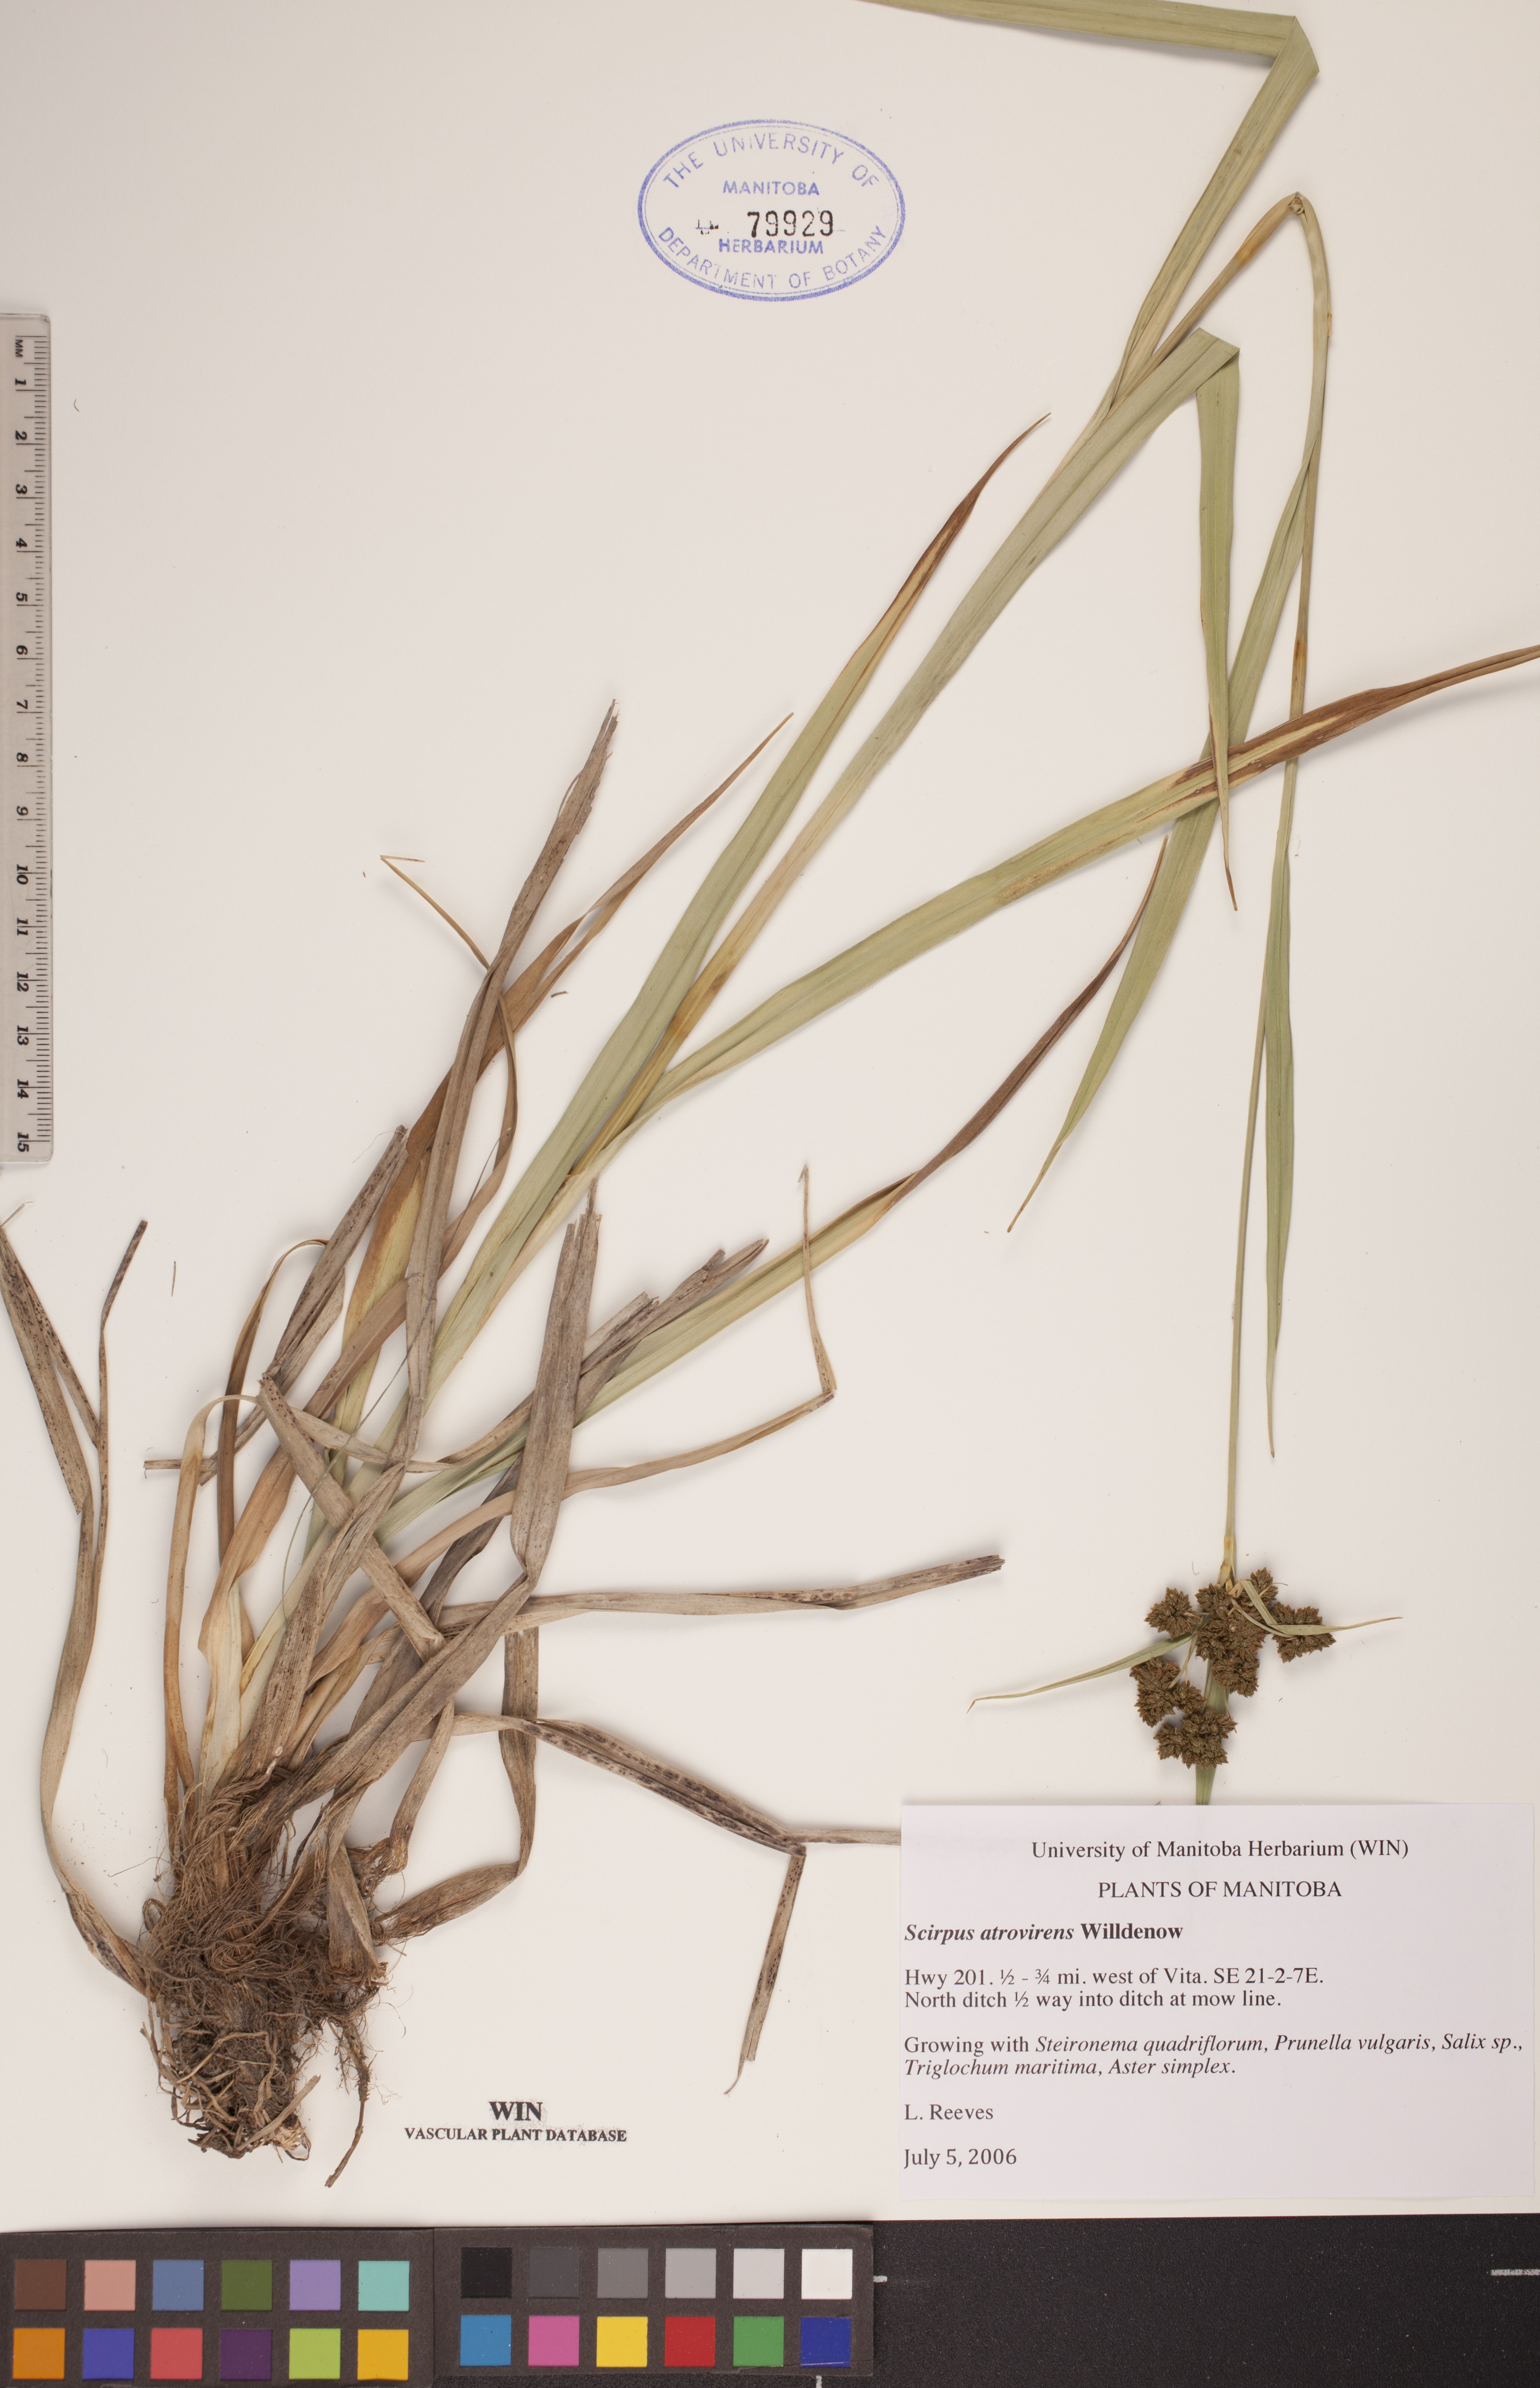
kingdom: Plantae
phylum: Tracheophyta
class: Liliopsida
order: Poales
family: Cyperaceae
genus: Scirpus
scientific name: Scirpus atrovirens
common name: Black bulrush
